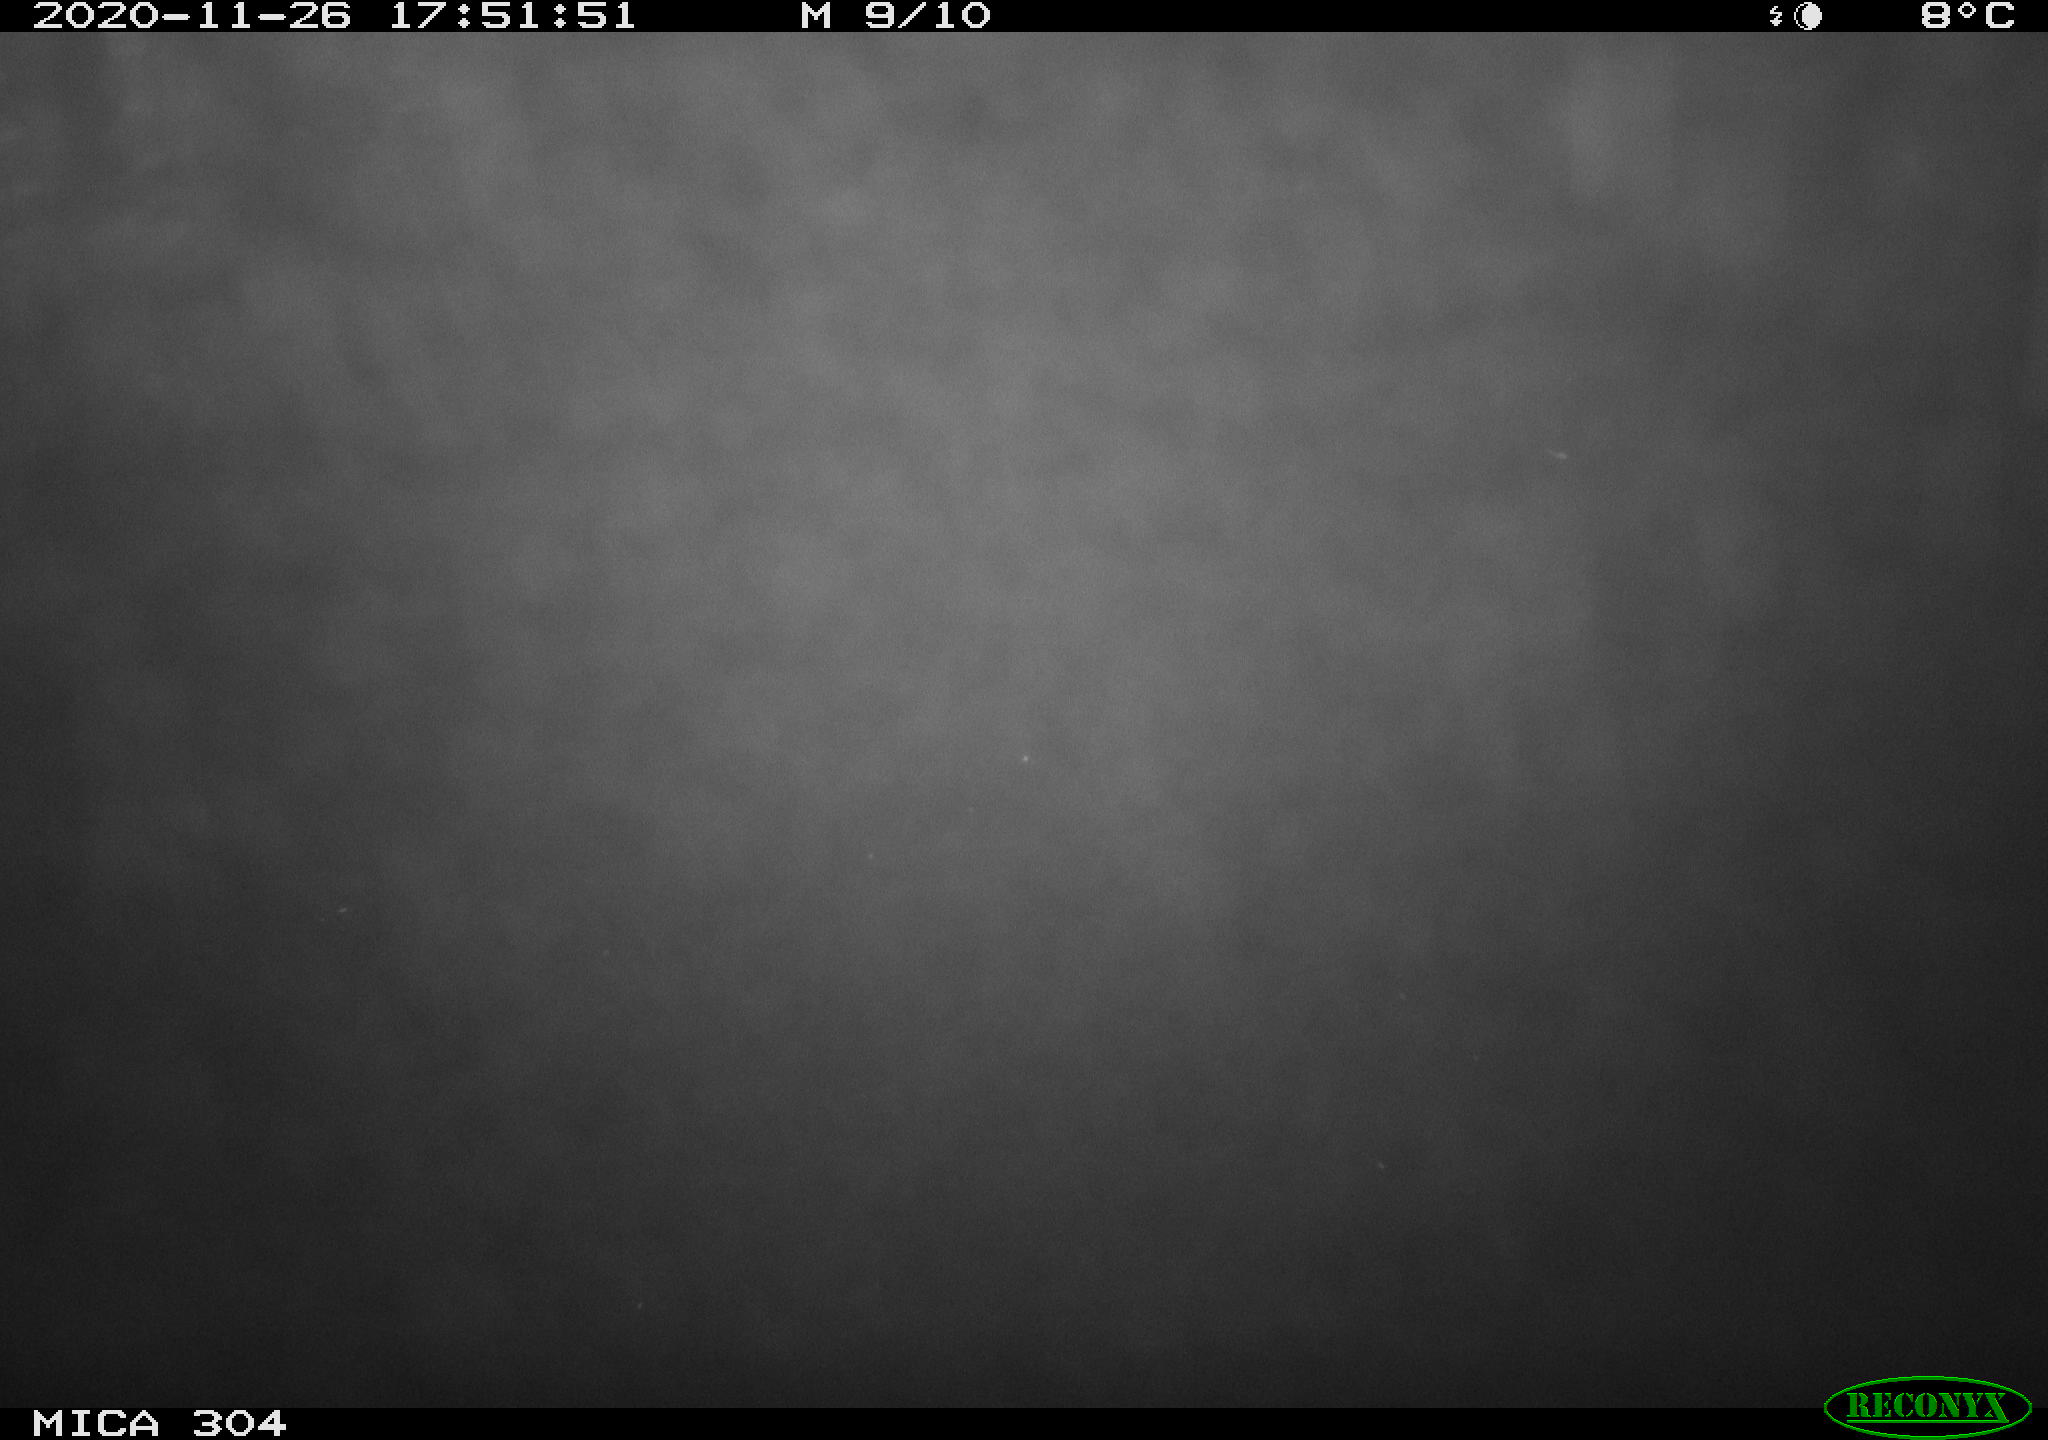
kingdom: Animalia
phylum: Chordata
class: Mammalia
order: Rodentia
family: Cricetidae
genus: Ondatra
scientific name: Ondatra zibethicus
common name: Muskrat
